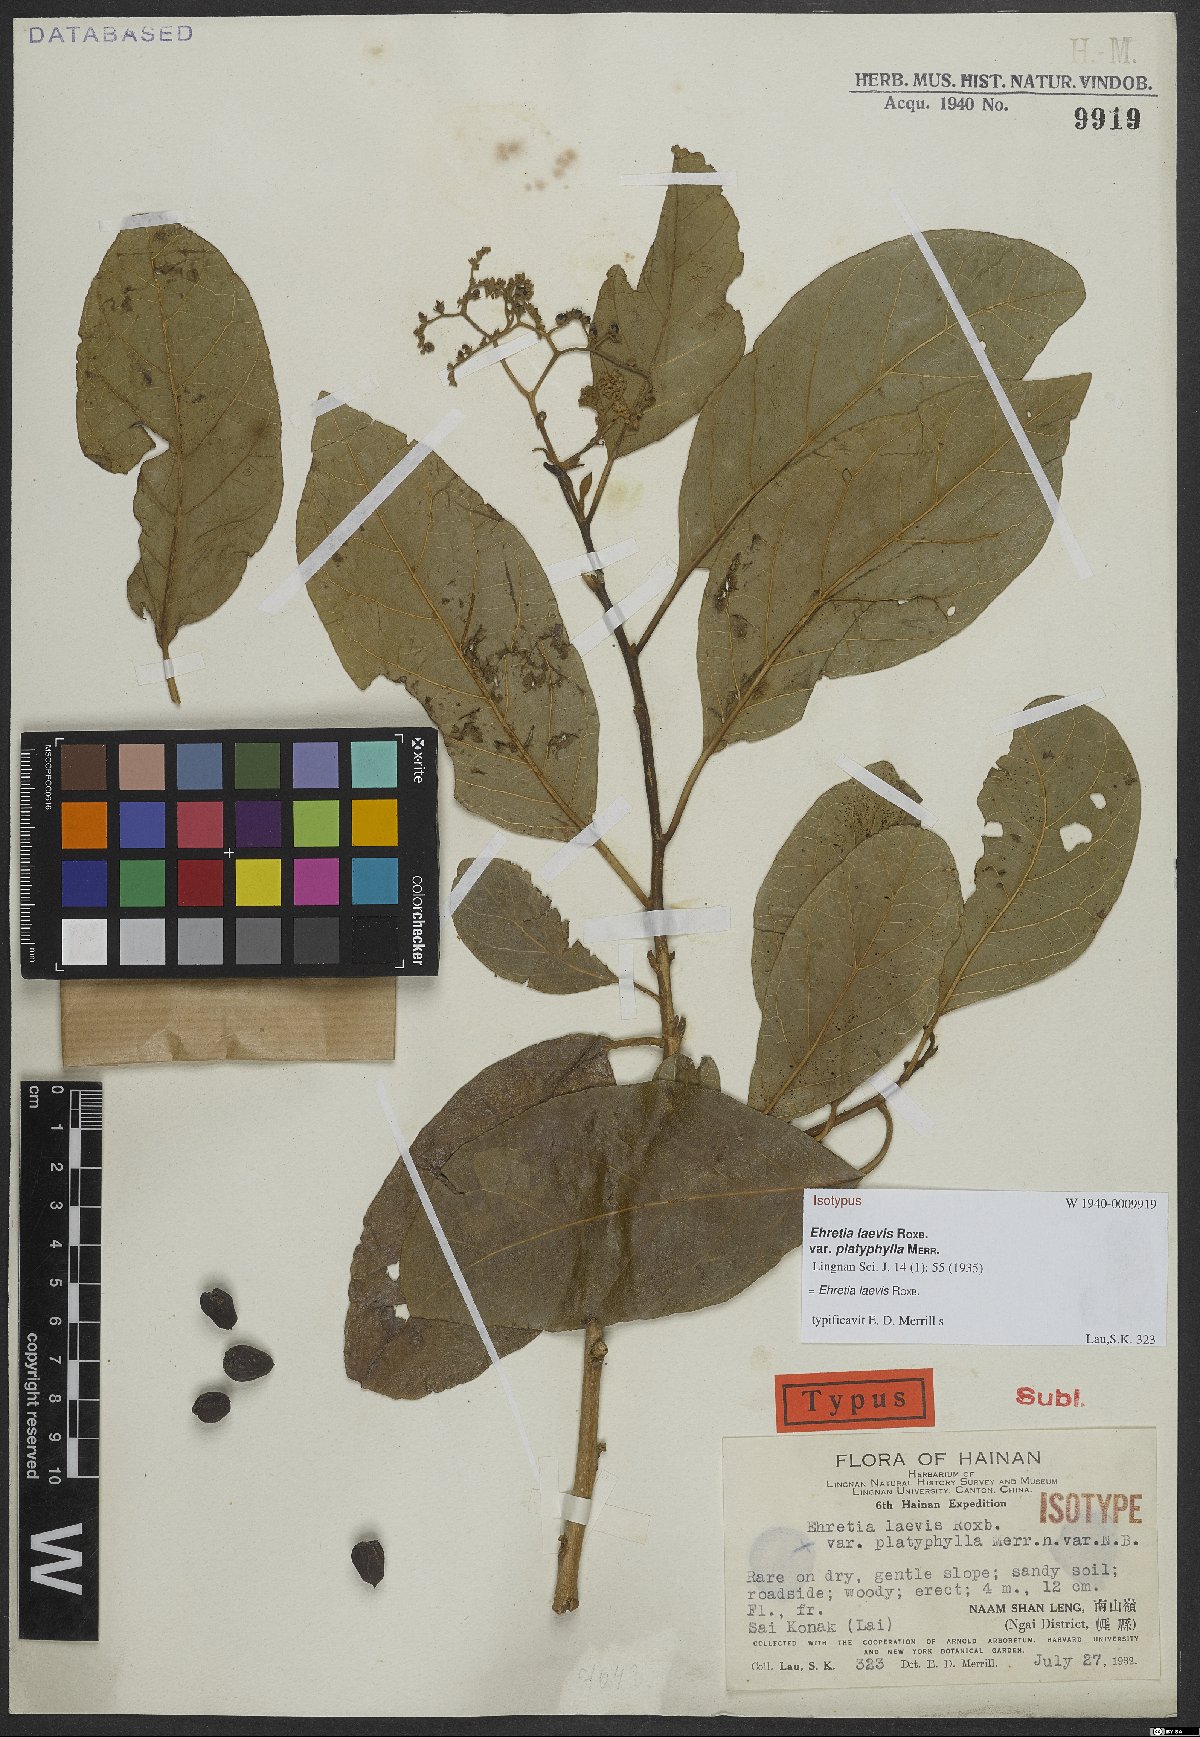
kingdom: Plantae
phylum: Tracheophyta
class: Magnoliopsida
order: Boraginales
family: Ehretiaceae
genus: Ehretia
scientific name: Ehretia laevis
